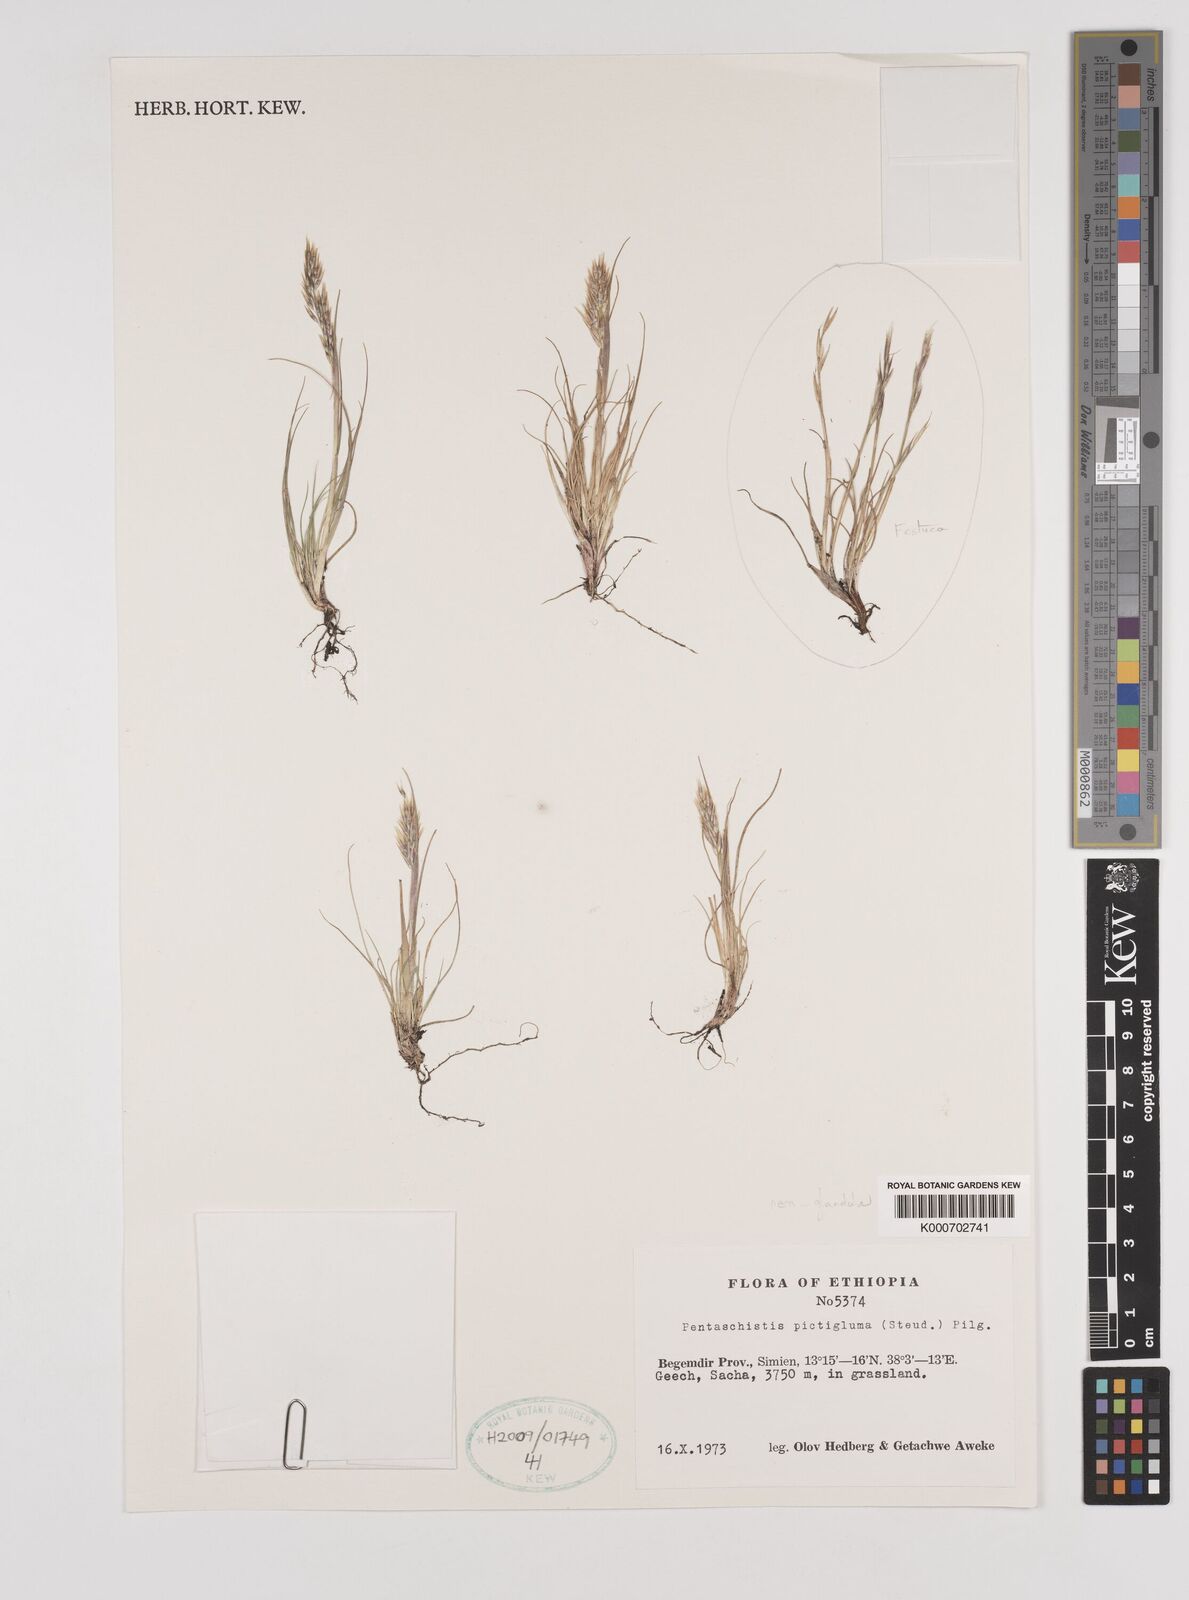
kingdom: Plantae
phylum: Tracheophyta
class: Liliopsida
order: Poales
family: Poaceae
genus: Pentameris
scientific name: Pentameris pictigluma
